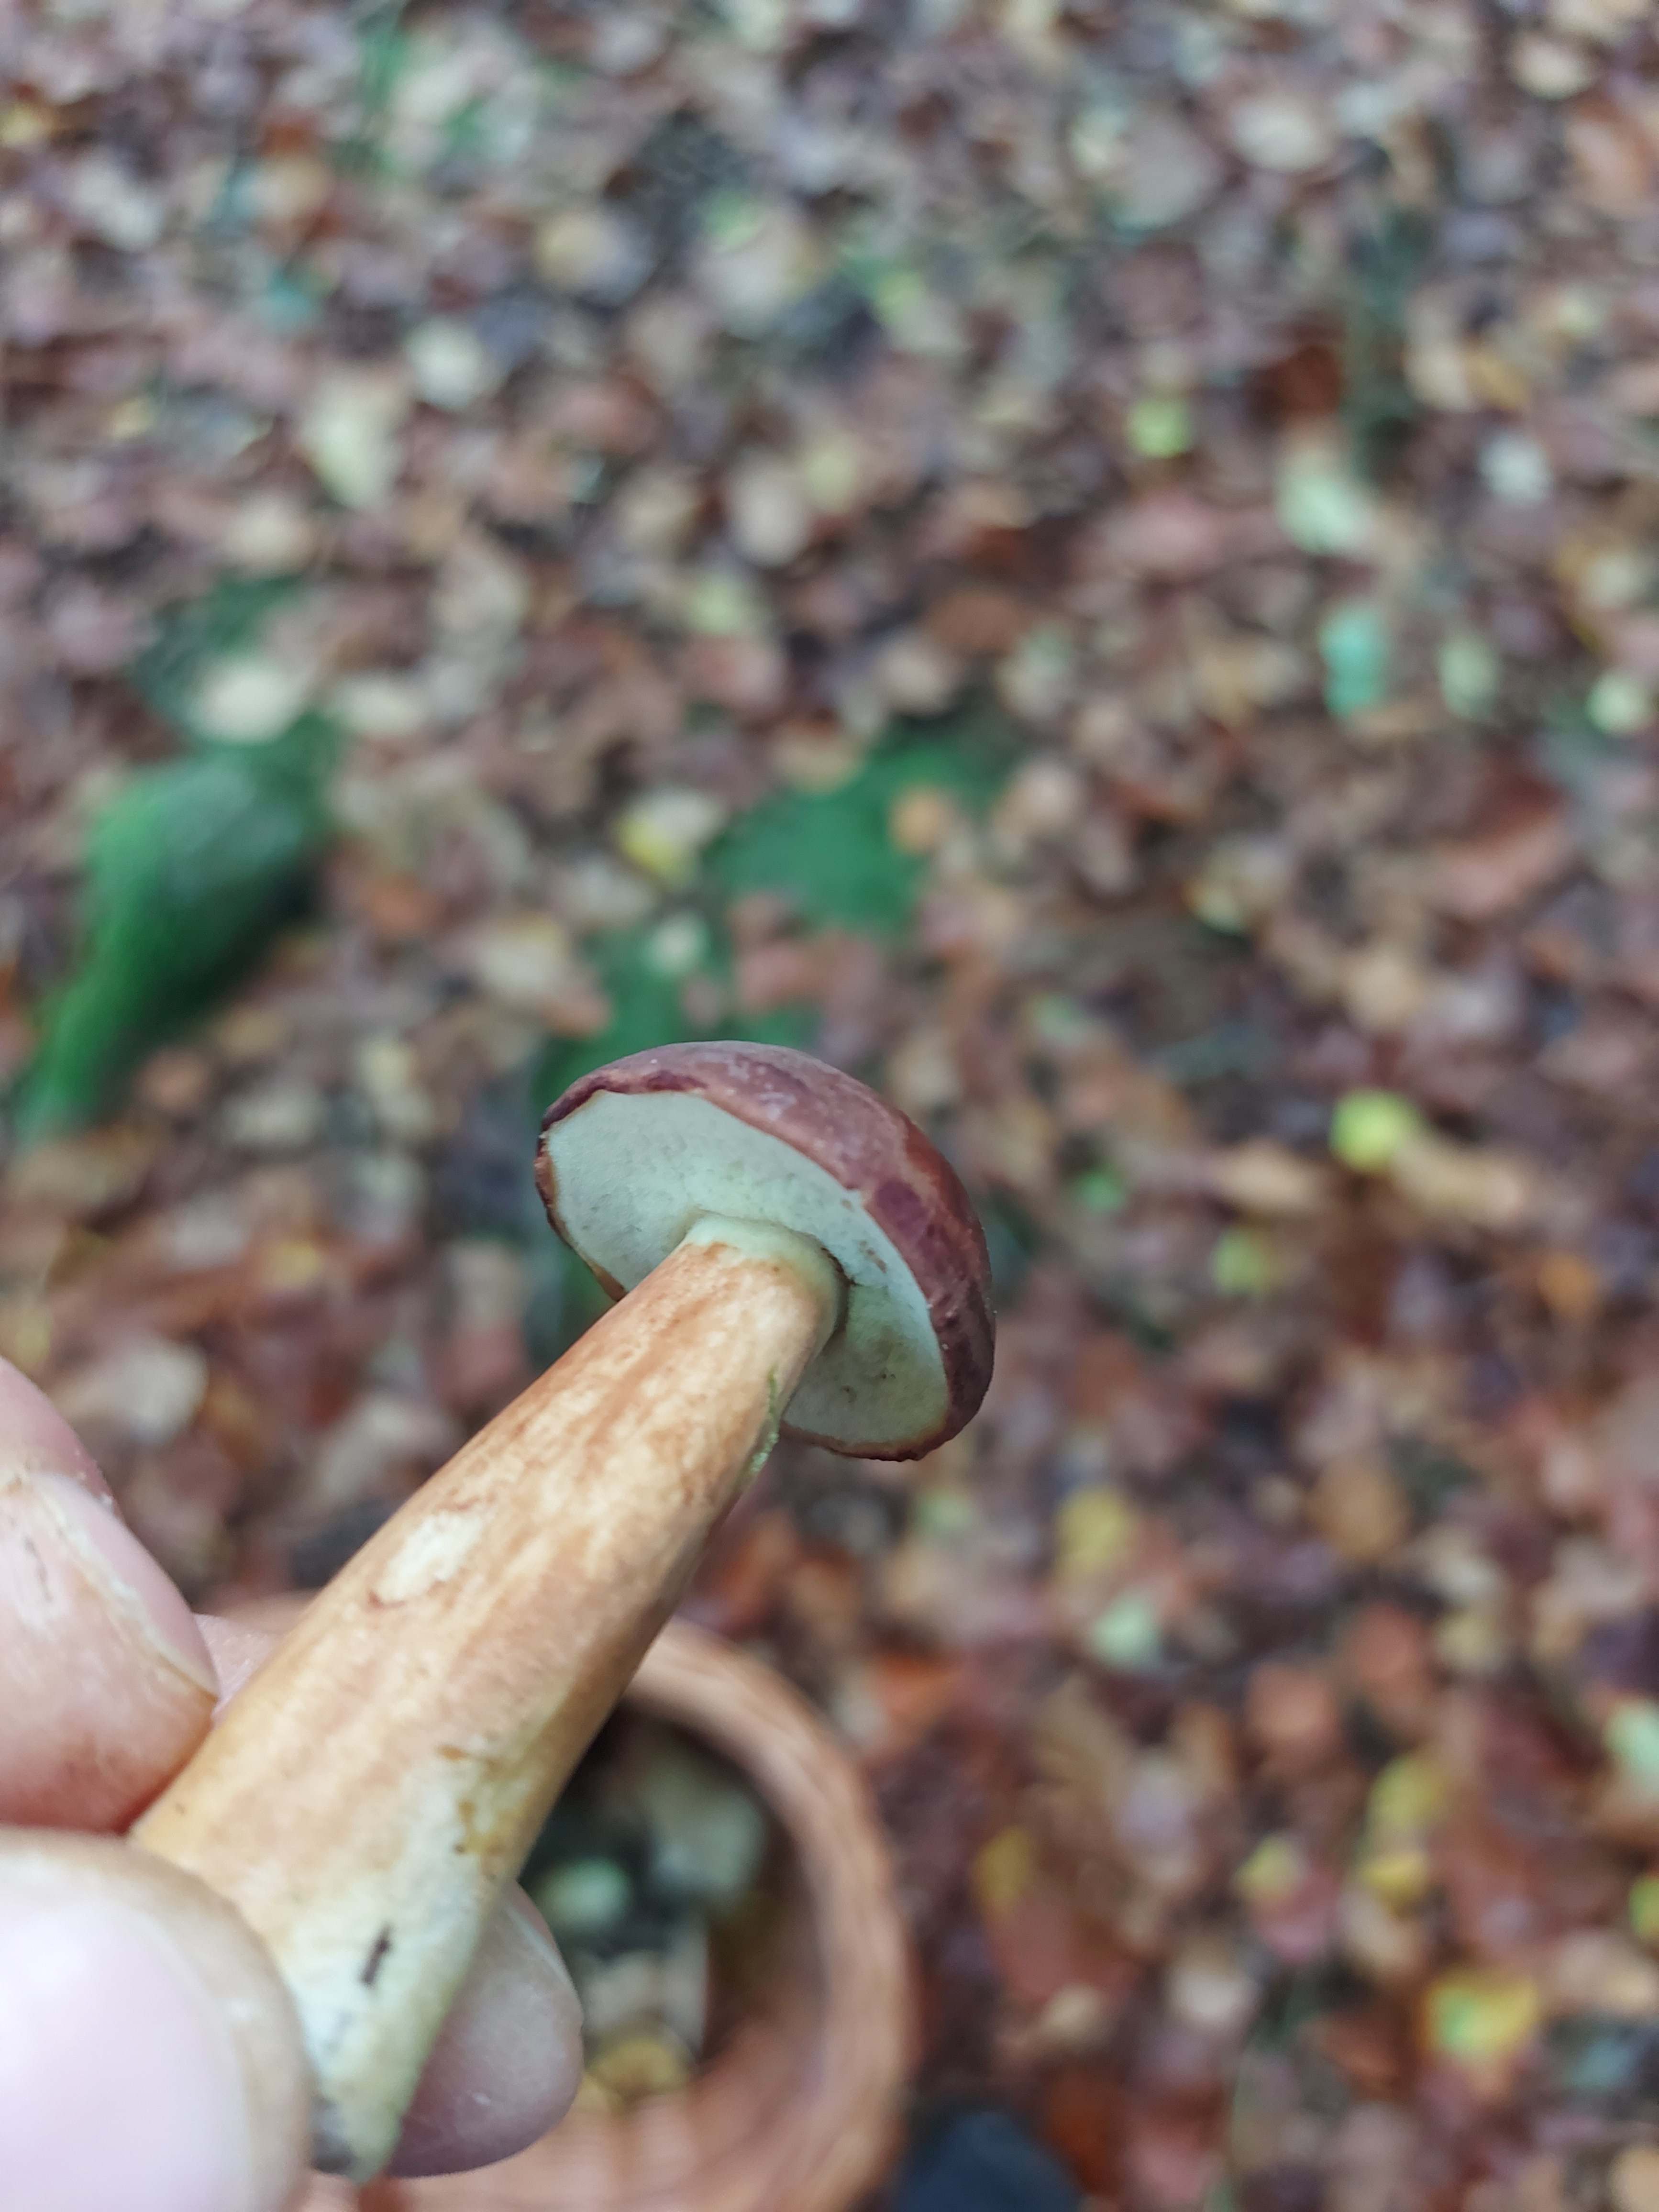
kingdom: Fungi
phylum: Basidiomycota
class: Agaricomycetes
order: Boletales
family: Boletaceae
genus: Imleria
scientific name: Imleria badia
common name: brunstokket rørhat
